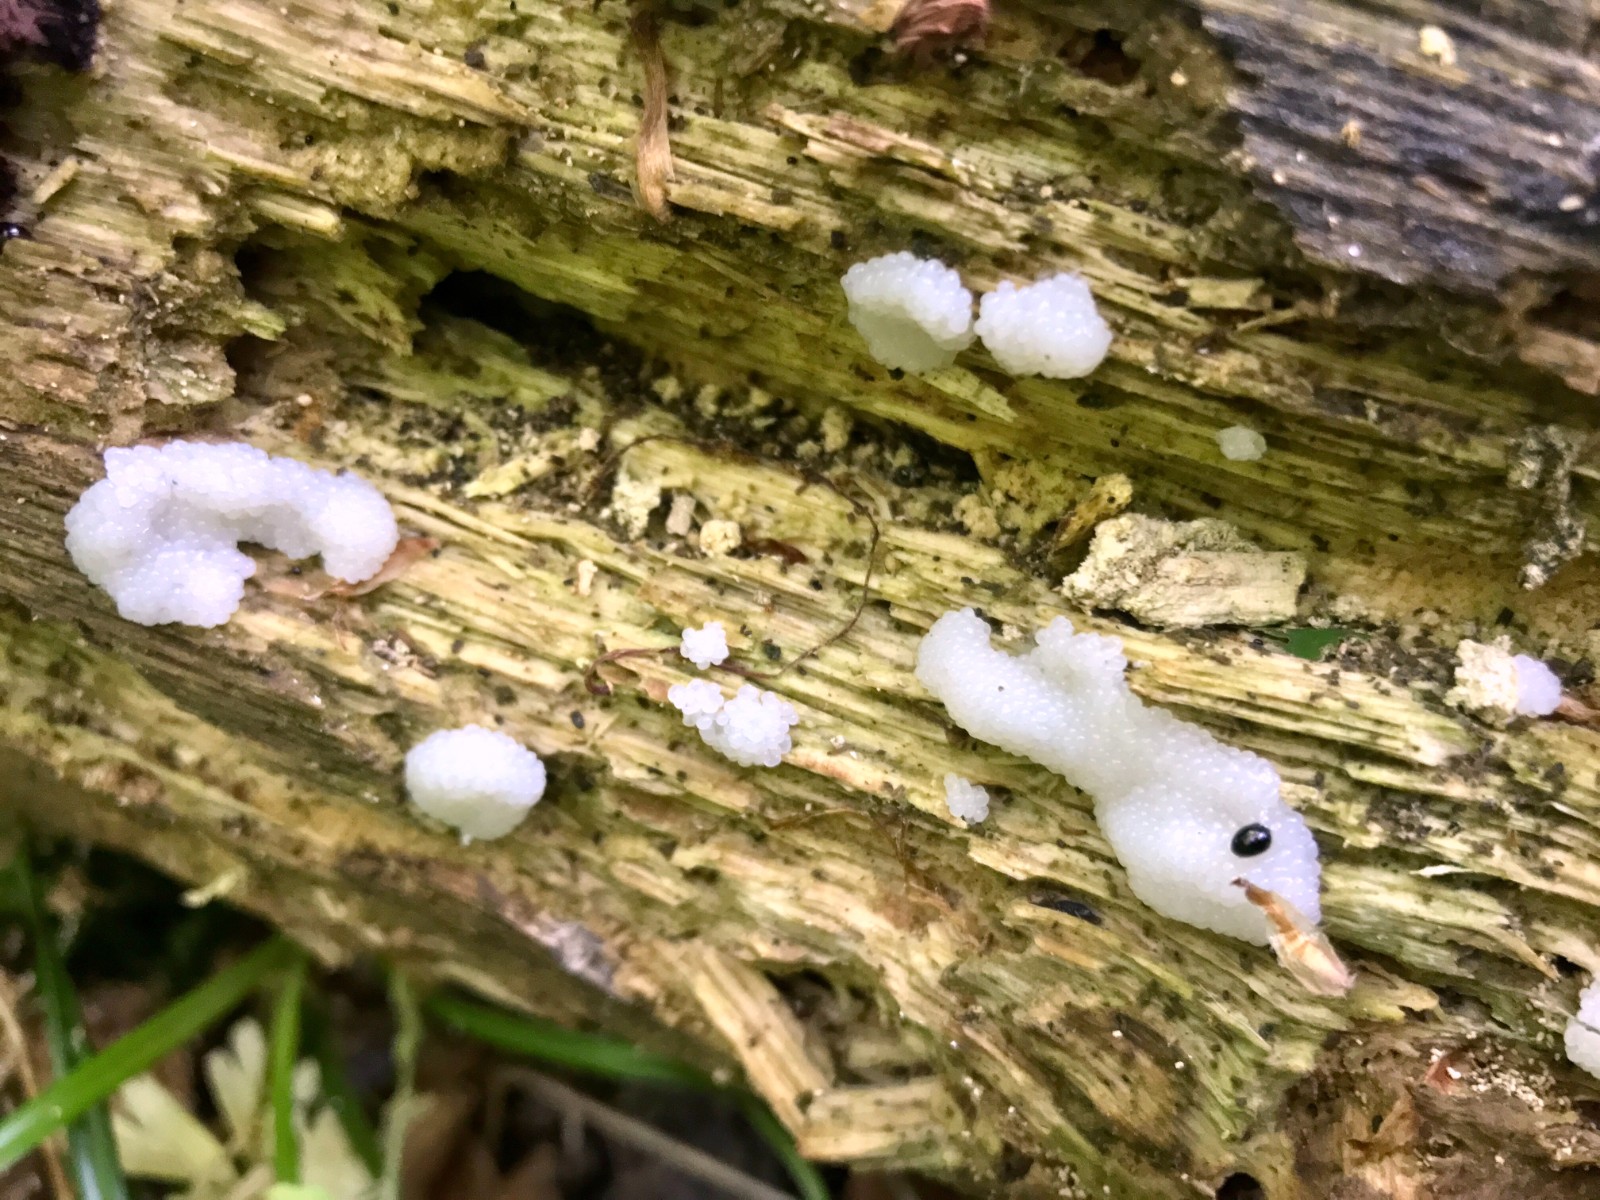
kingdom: Protozoa
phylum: Mycetozoa
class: Myxomycetes
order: Stemonitidales
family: Stemonitidaceae
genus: Stemonitis
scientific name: Stemonitis
